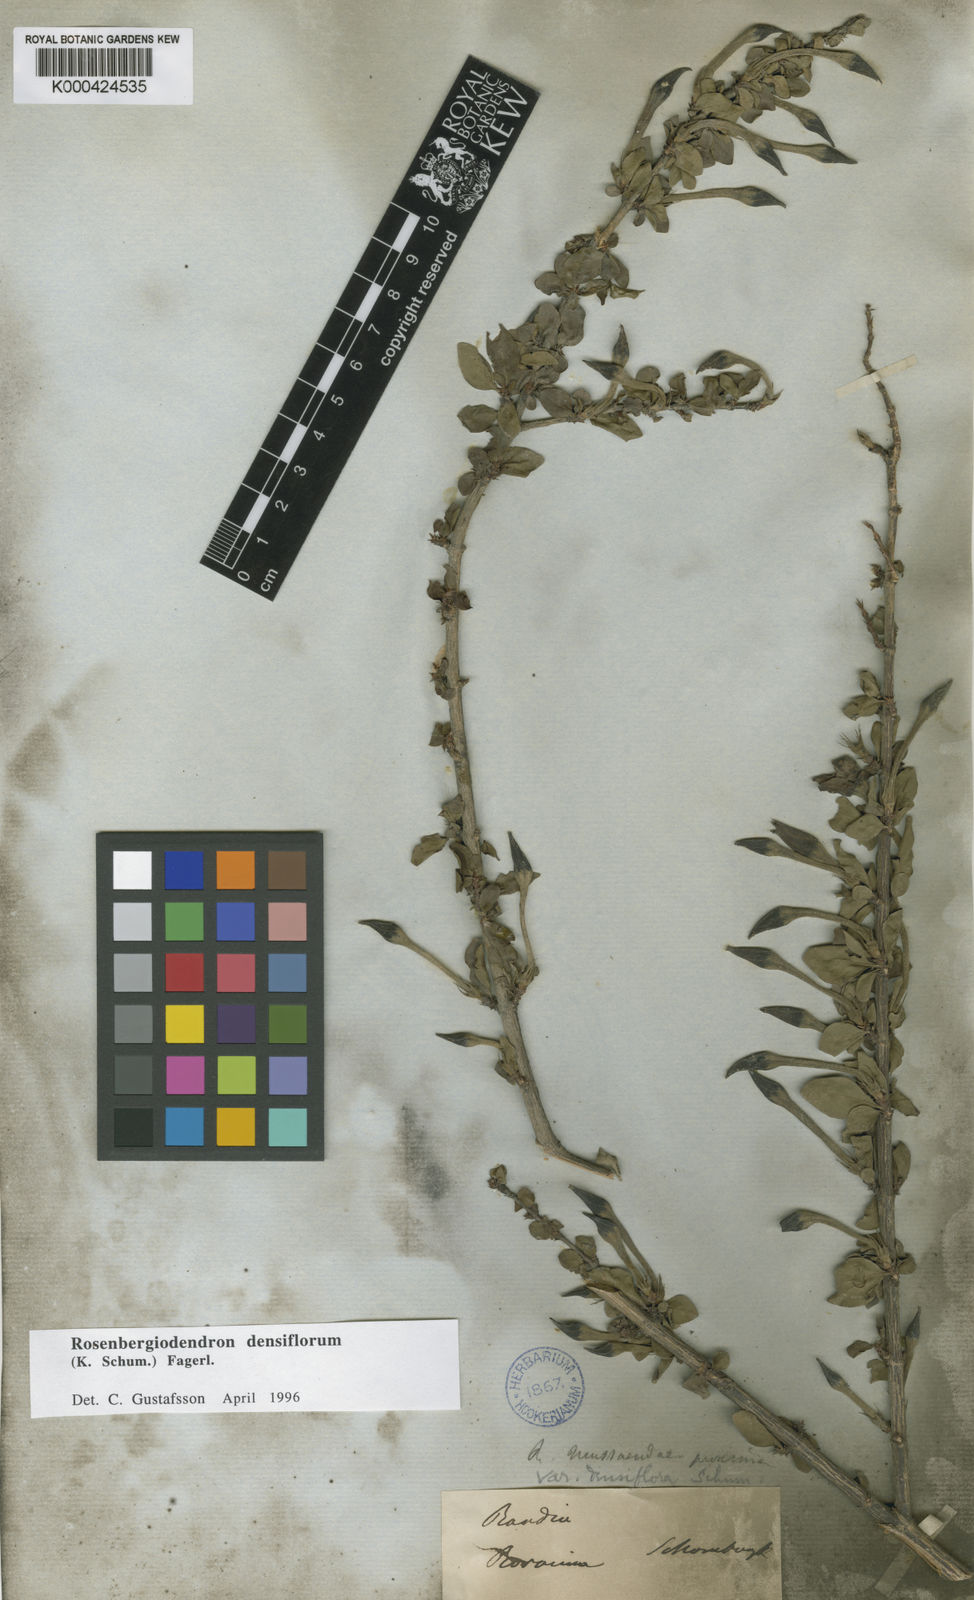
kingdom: Plantae
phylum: Tracheophyta
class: Magnoliopsida
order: Gentianales
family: Rubiaceae
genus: Rosenbergiodendron
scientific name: Rosenbergiodendron densiflorum
